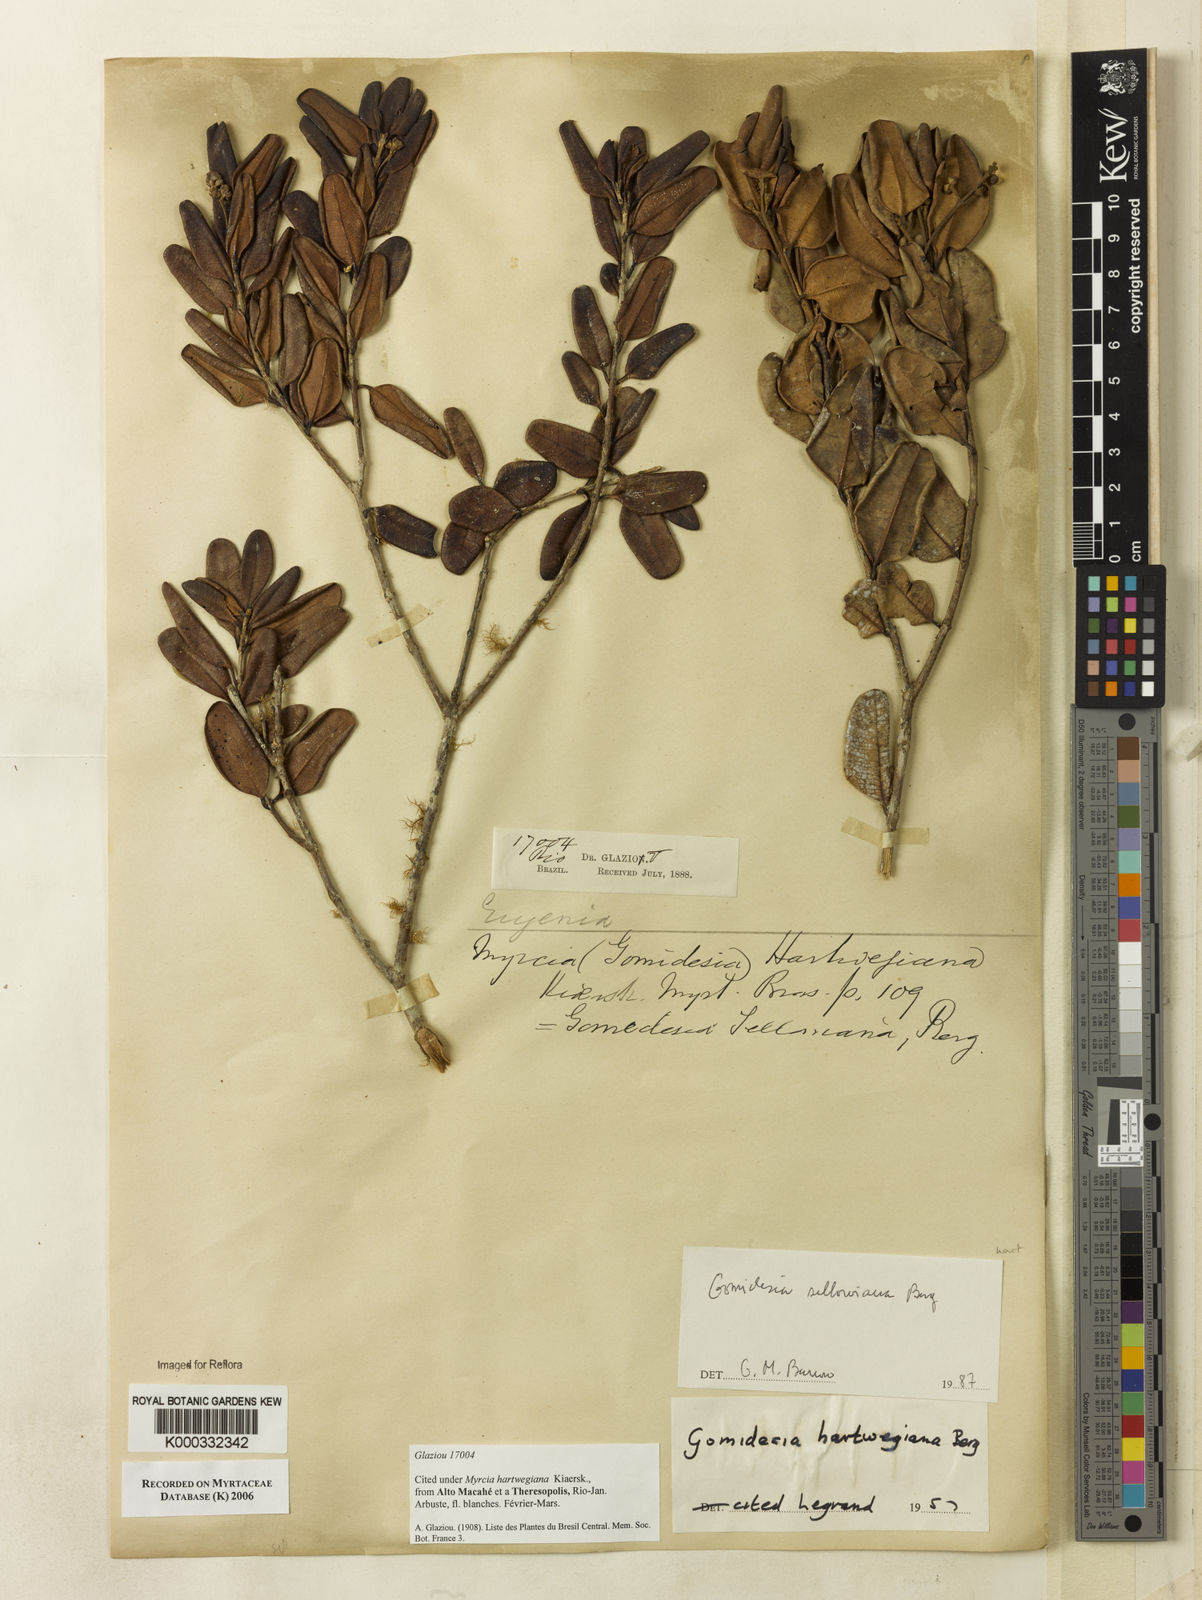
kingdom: Plantae
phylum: Tracheophyta
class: Magnoliopsida
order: Myrtales
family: Myrtaceae
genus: Myrcia
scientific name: Myrcia hartwegiana
